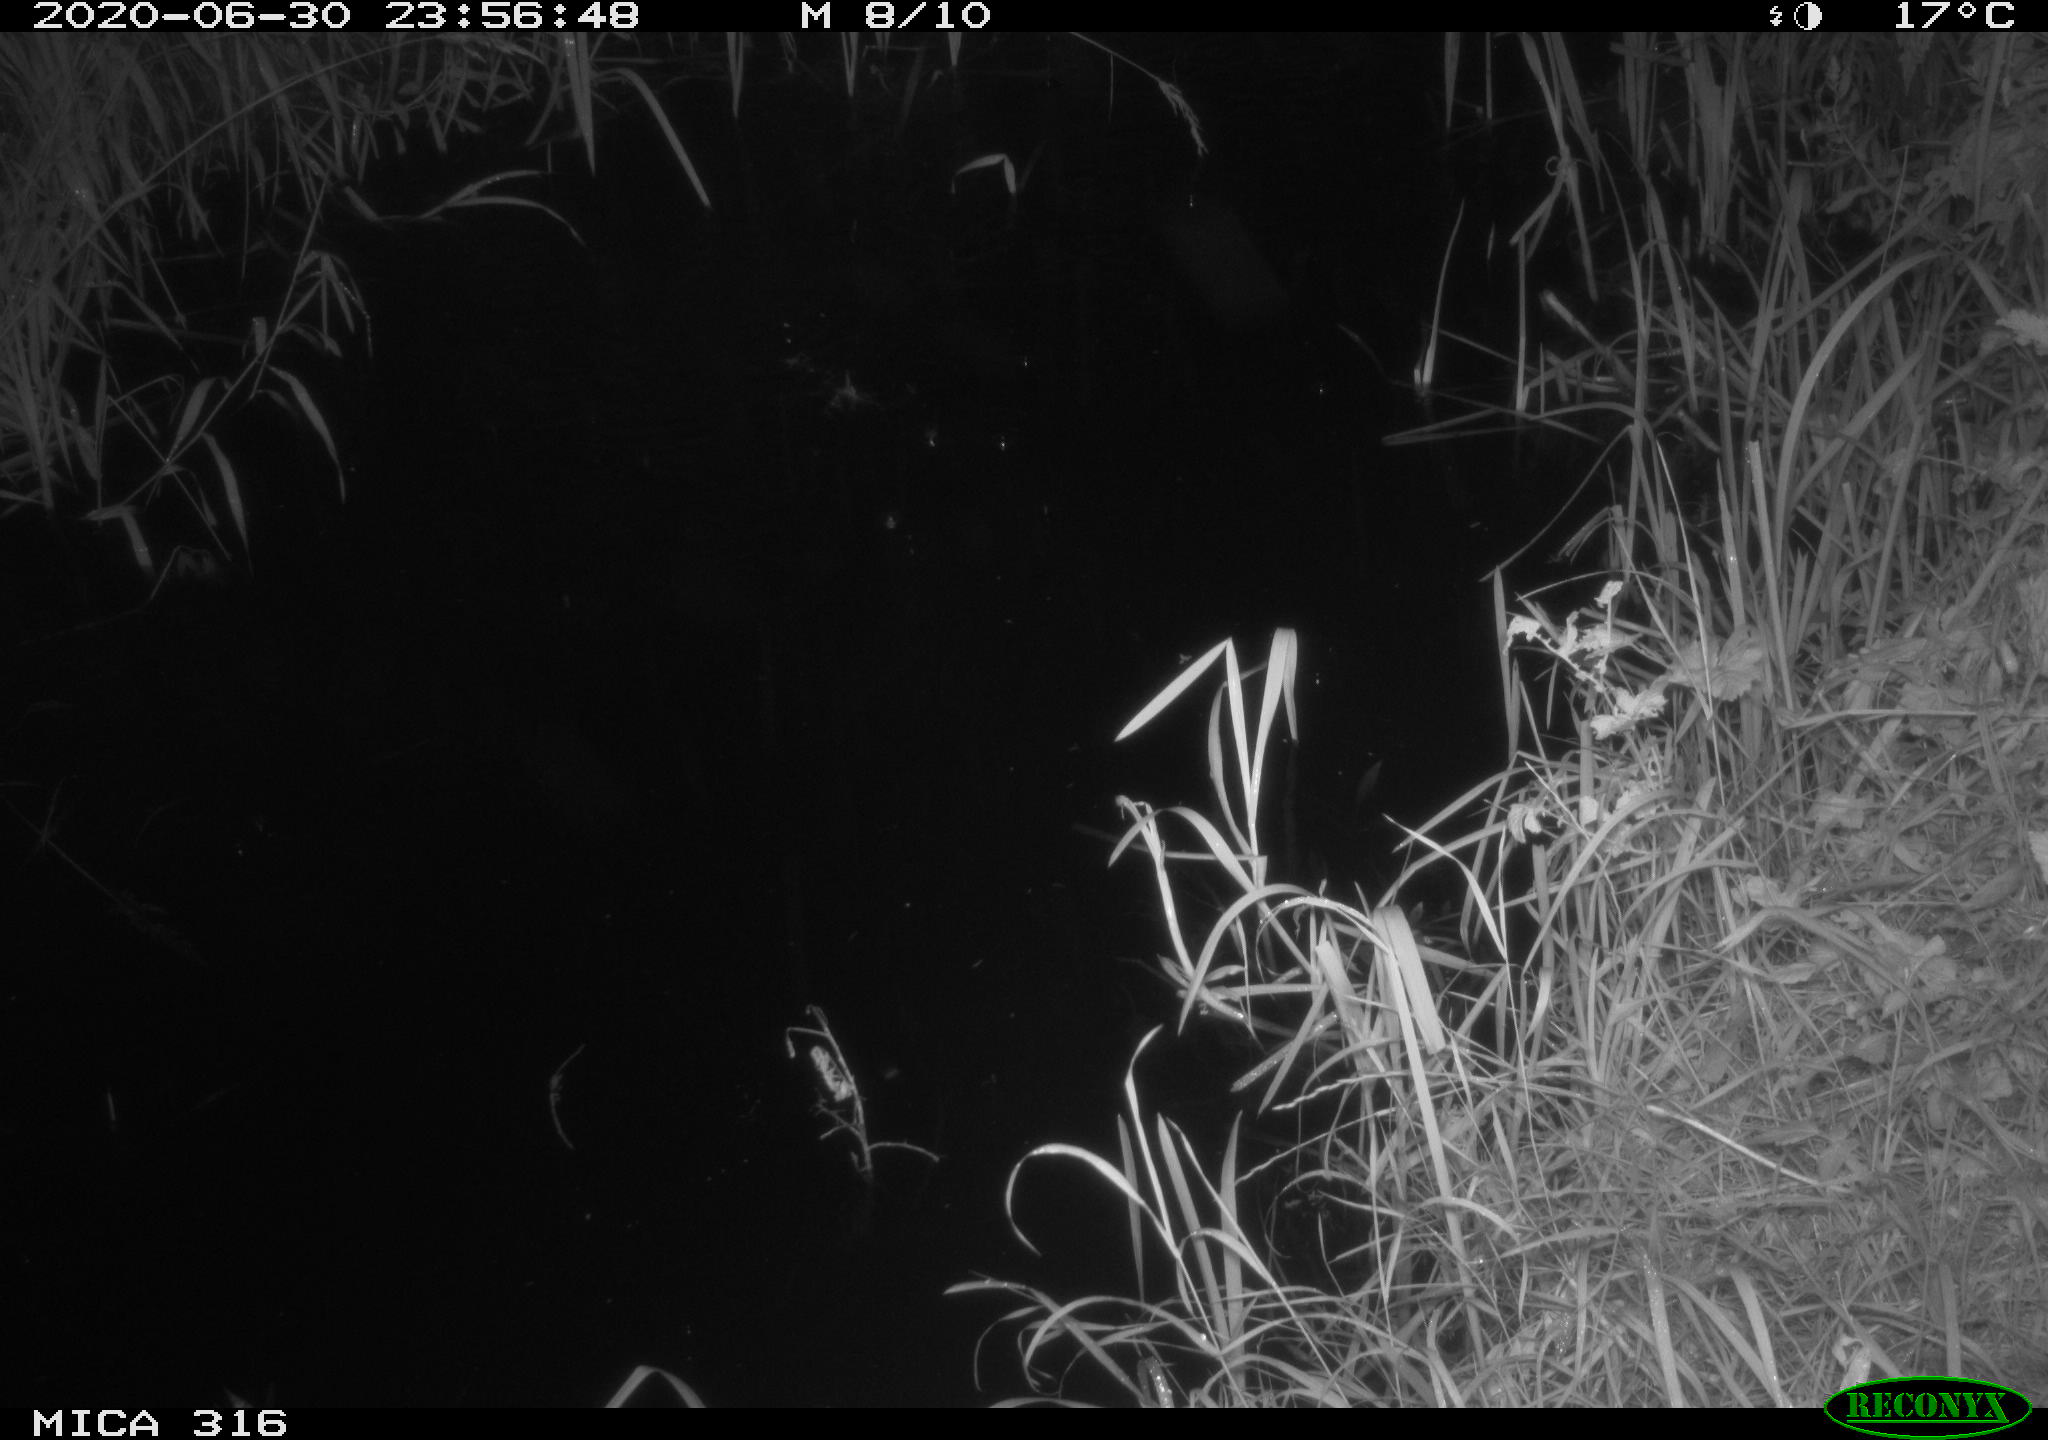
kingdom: Animalia
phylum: Chordata
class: Aves
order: Anseriformes
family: Anatidae
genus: Anas
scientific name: Anas platyrhynchos
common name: Mallard
